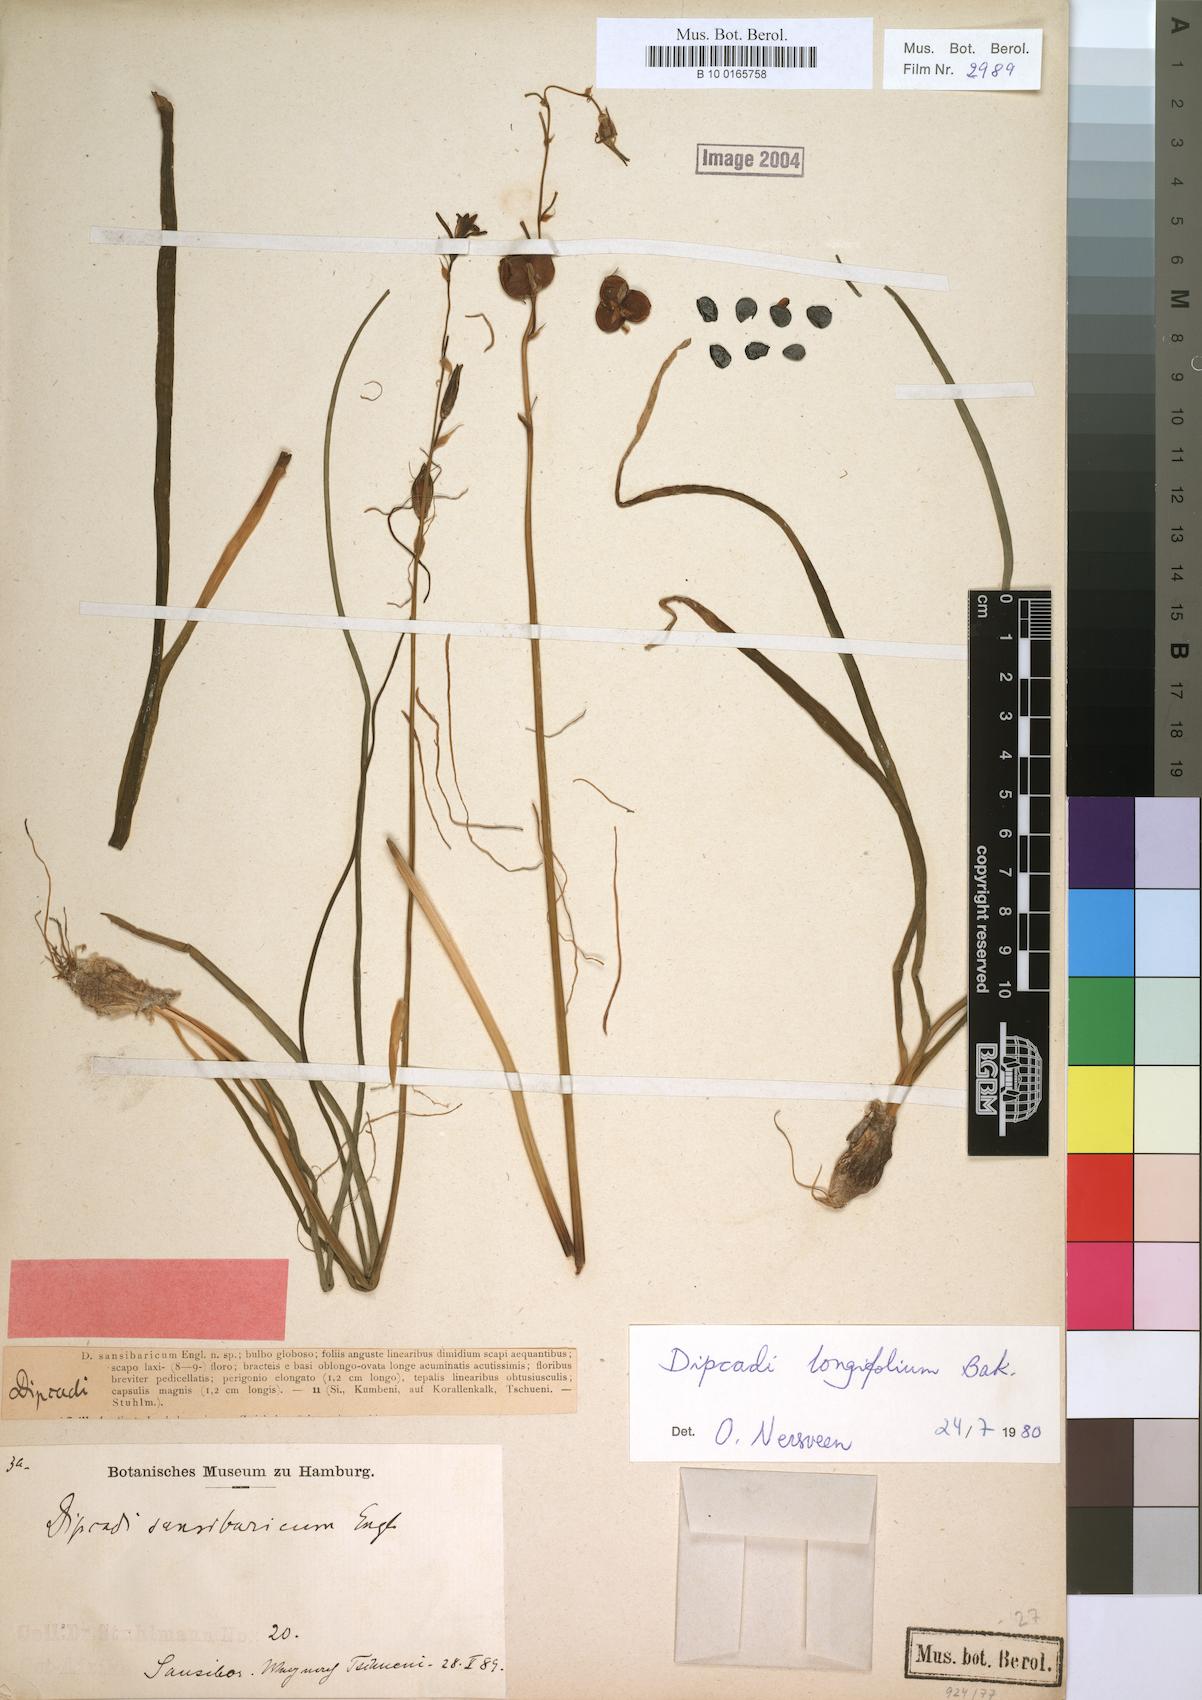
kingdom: Plantae
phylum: Tracheophyta
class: Liliopsida
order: Asparagales
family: Asparagaceae
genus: Dipcadi
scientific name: Dipcadi longifolium
